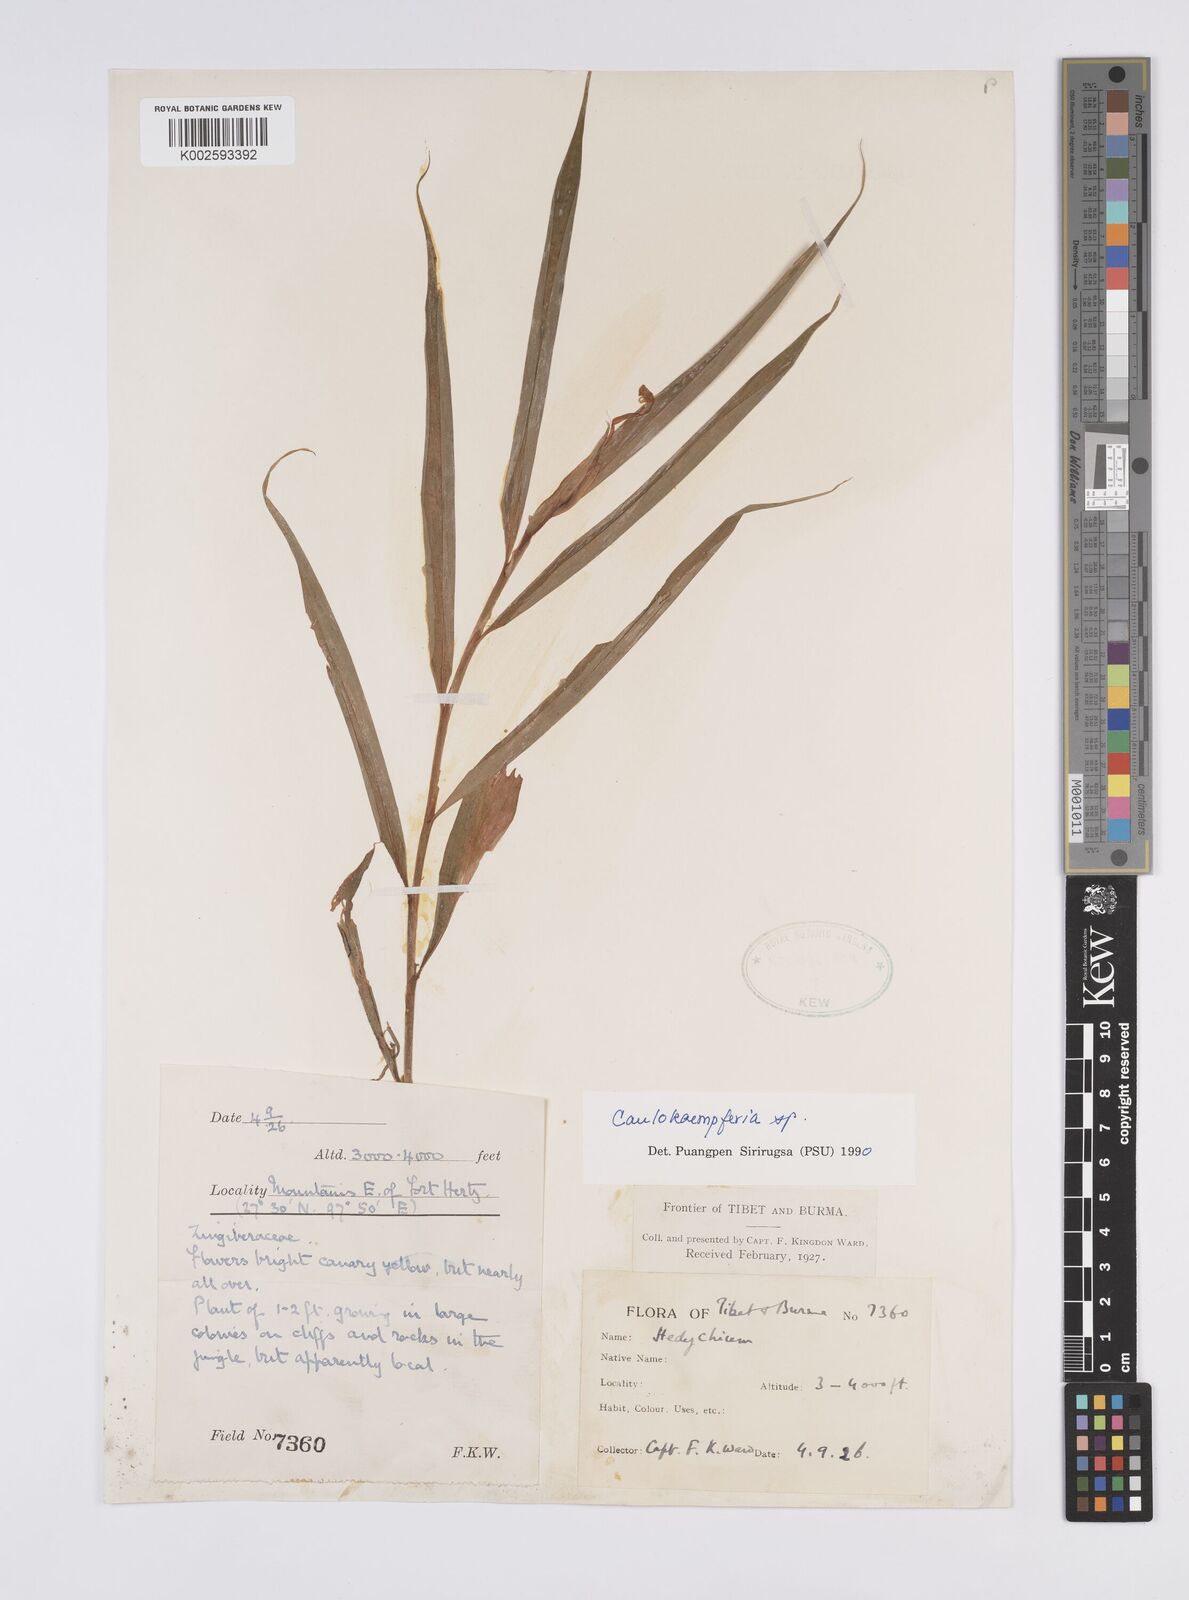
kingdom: Plantae
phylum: Tracheophyta
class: Liliopsida
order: Zingiberales
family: Zingiberaceae
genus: Caulokaempferia
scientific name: Caulokaempferia
